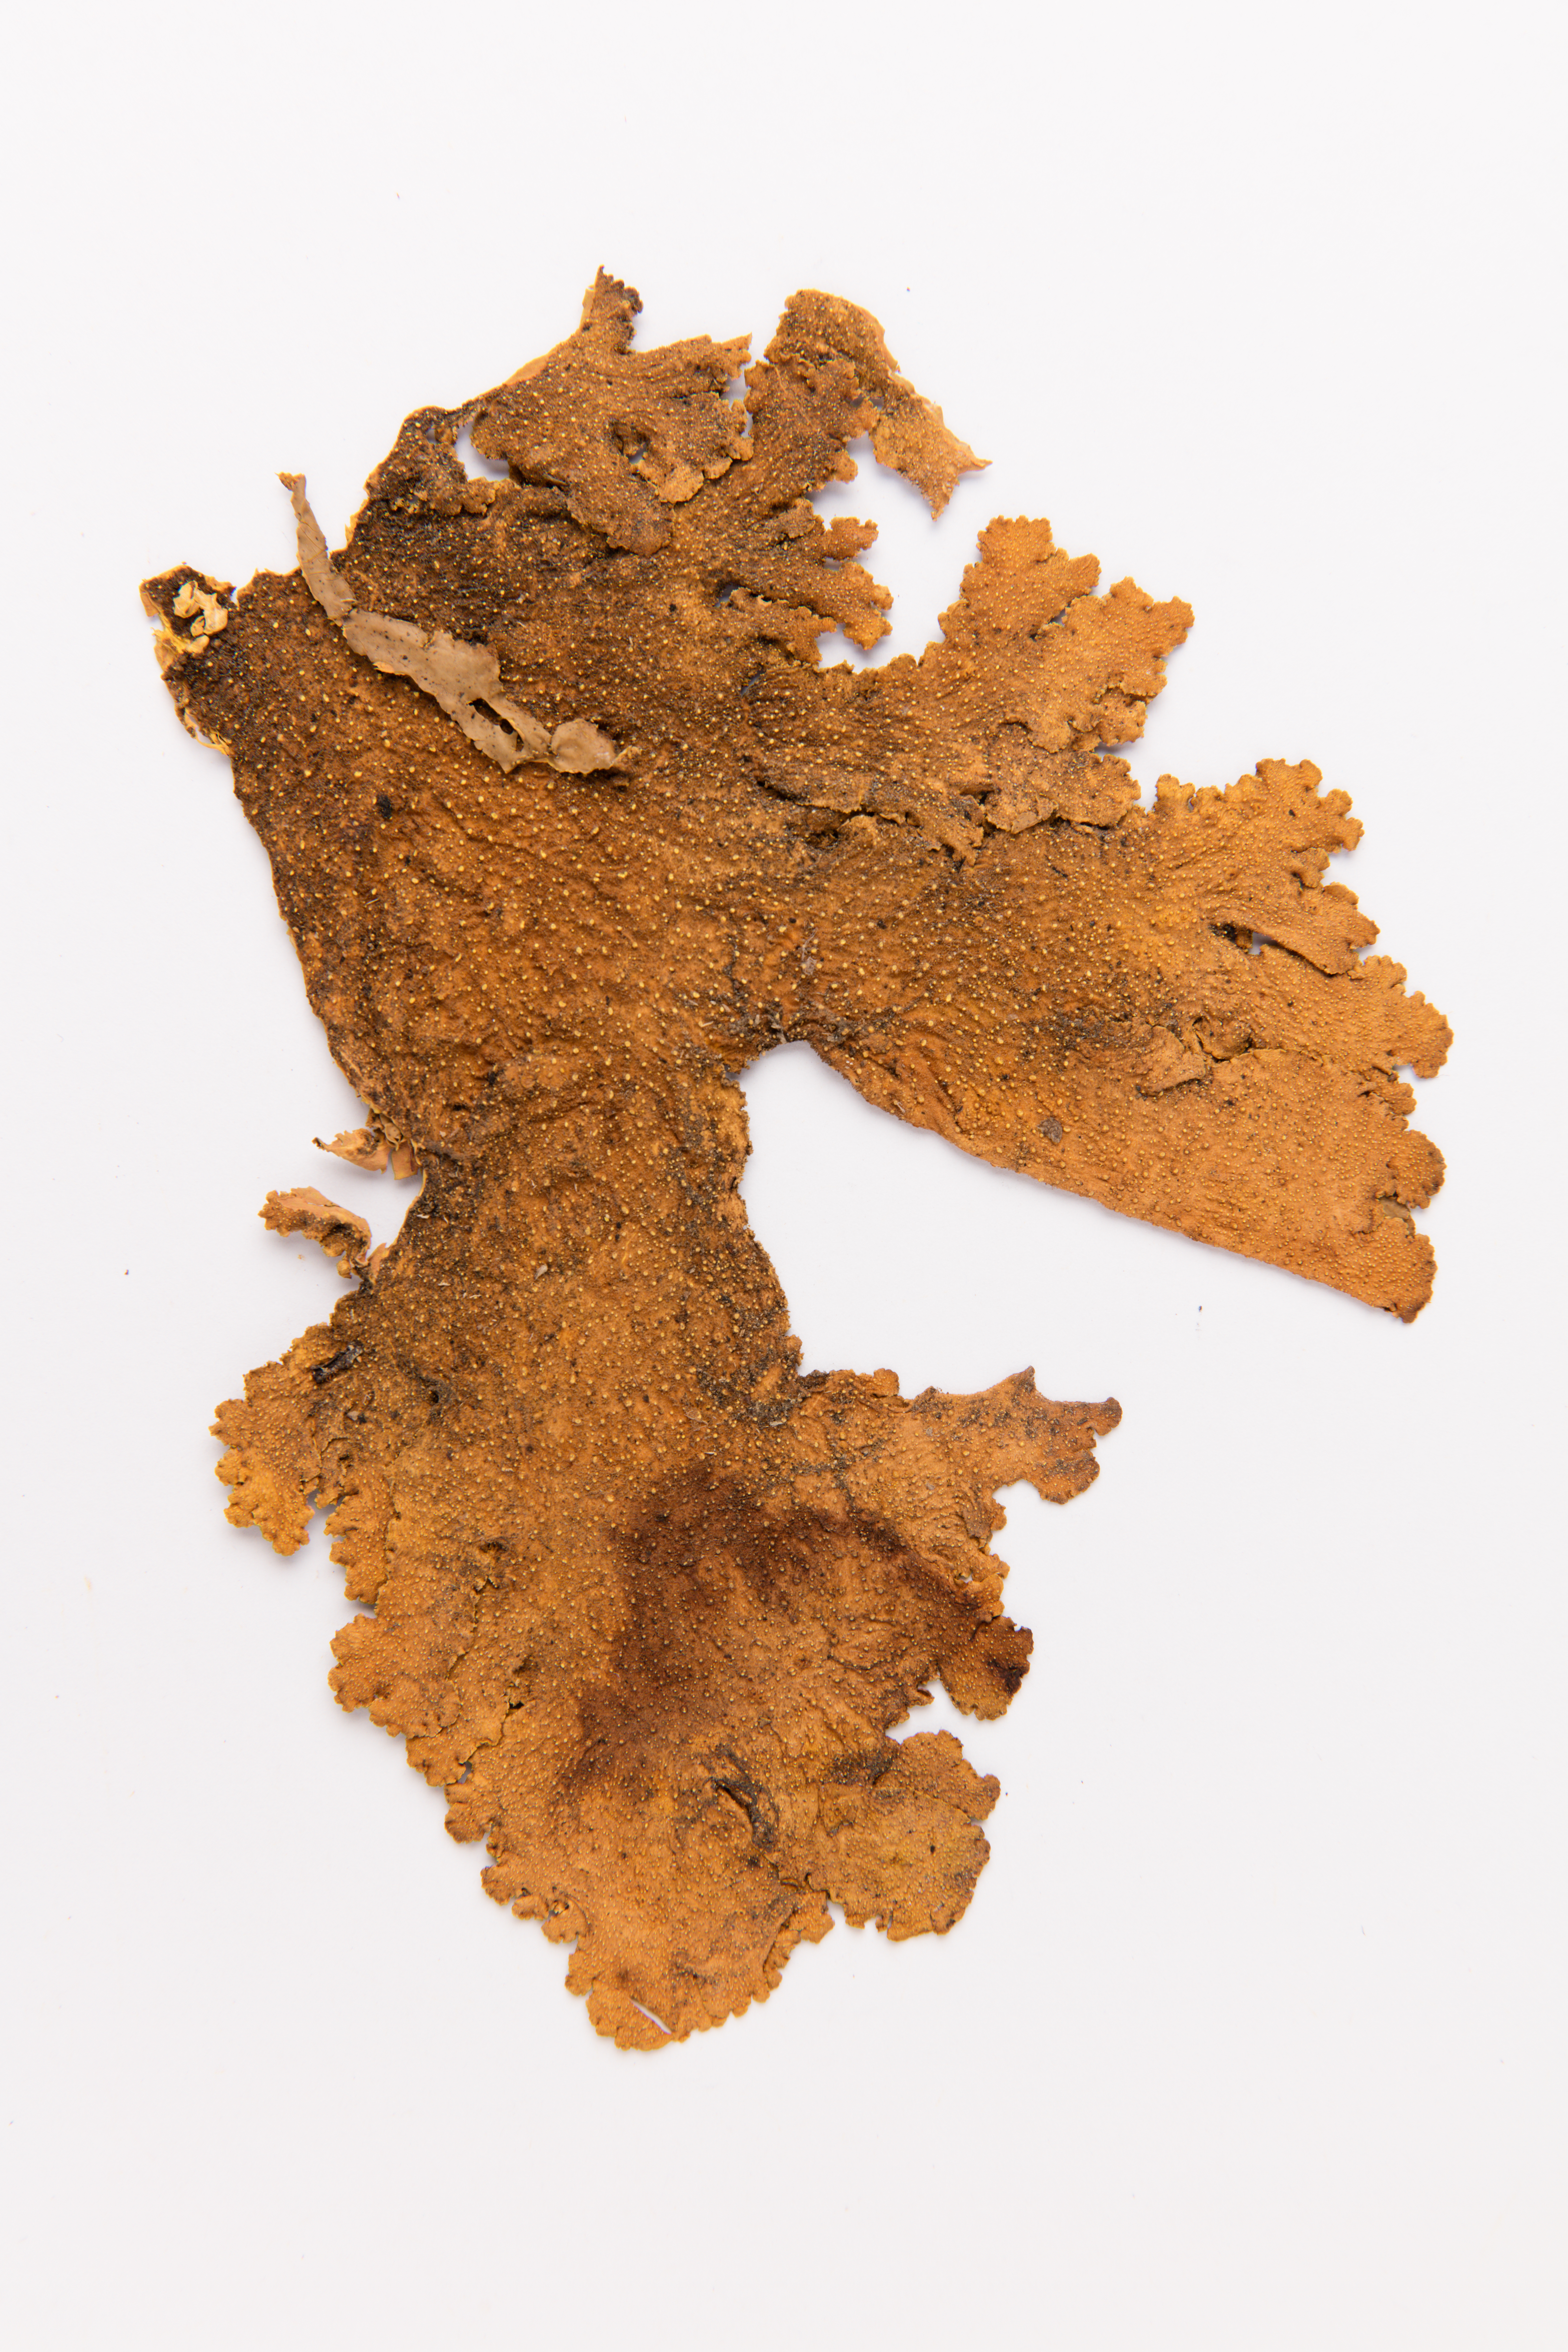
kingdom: Fungi
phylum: Ascomycota
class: Lecanoromycetes
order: Peltigerales
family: Lobariaceae
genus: Yarrumia
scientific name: Yarrumia colensoi
